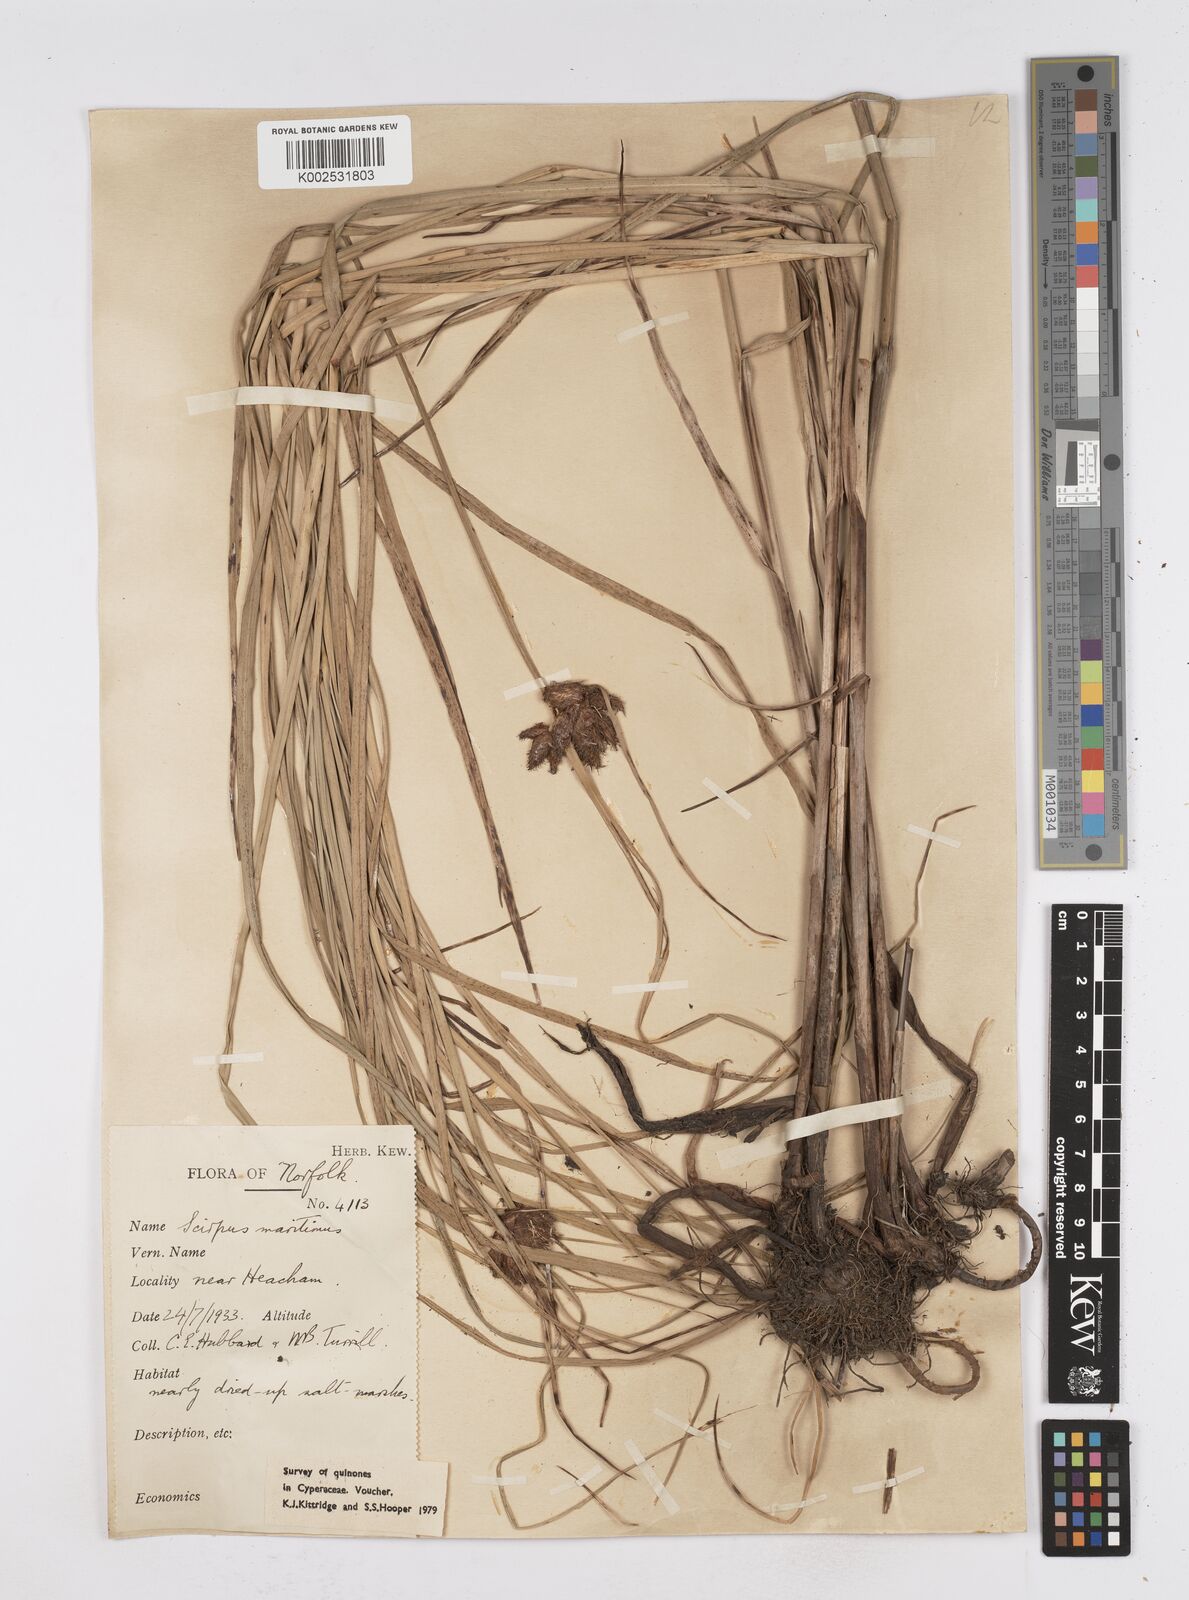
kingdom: Plantae
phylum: Tracheophyta
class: Liliopsida
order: Poales
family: Cyperaceae
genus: Bolboschoenus
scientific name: Bolboschoenus maritimus
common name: Sea club-rush
